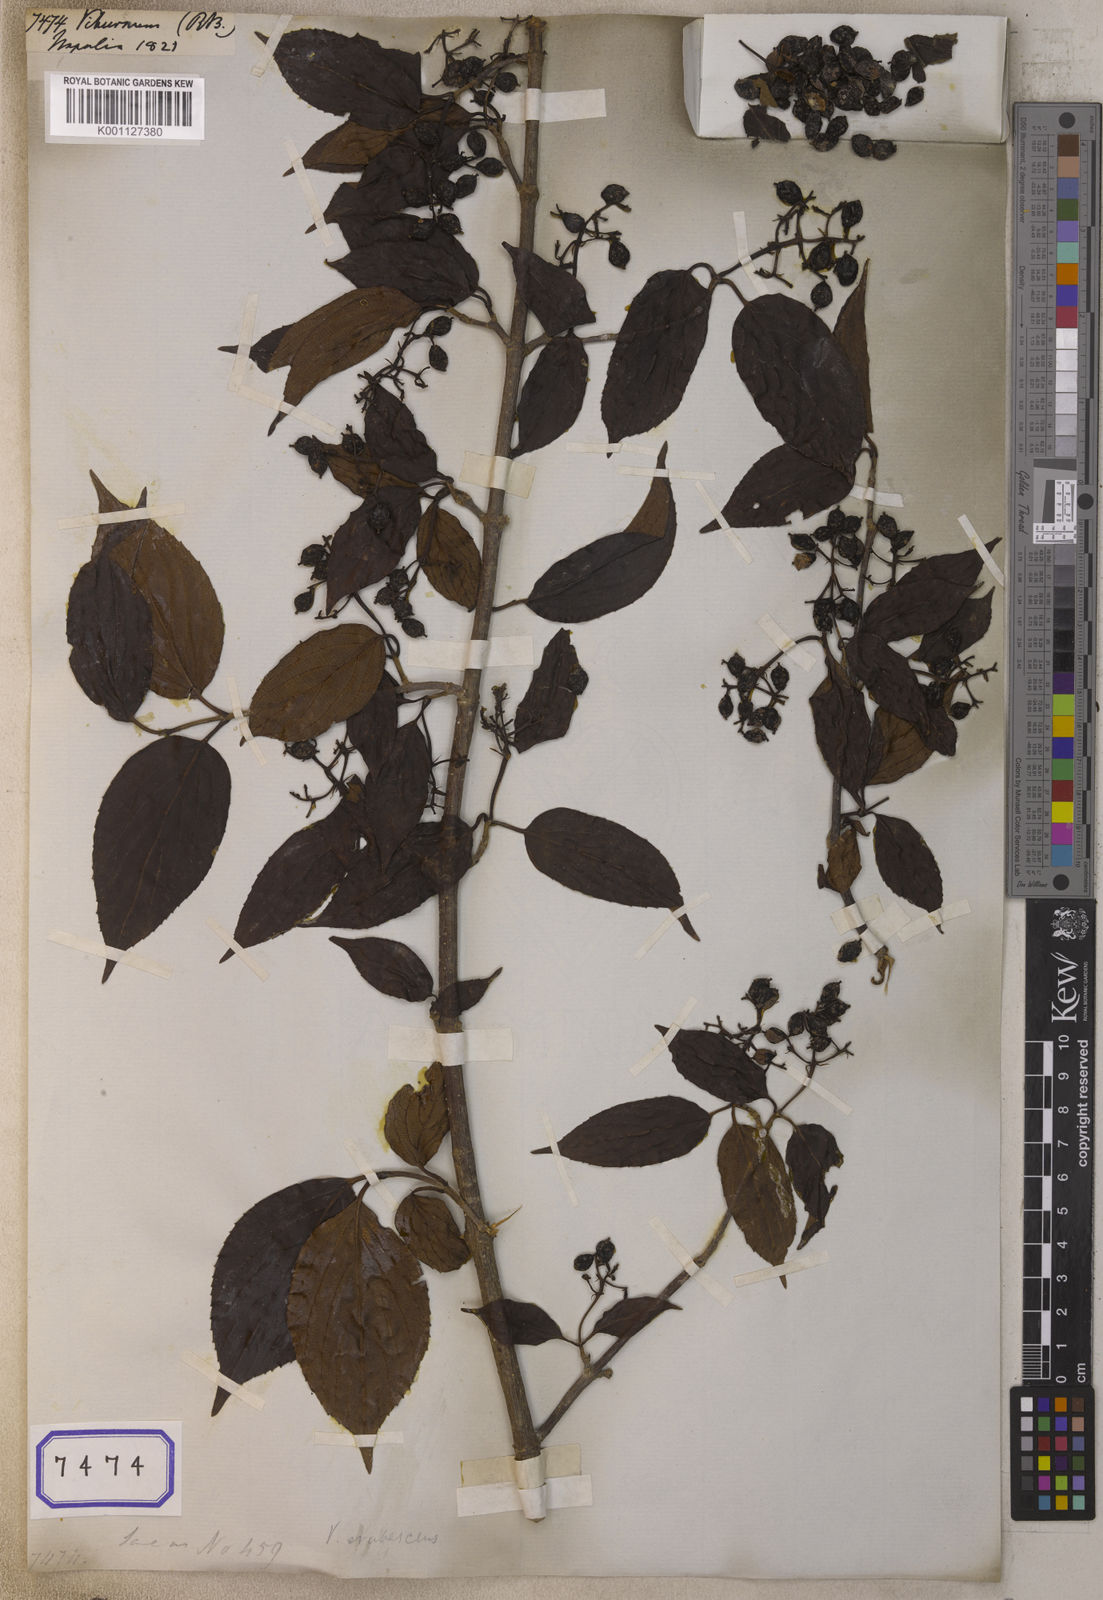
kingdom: Plantae
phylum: Tracheophyta
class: Magnoliopsida
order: Dipsacales
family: Viburnaceae
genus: Viburnum
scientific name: Viburnum
